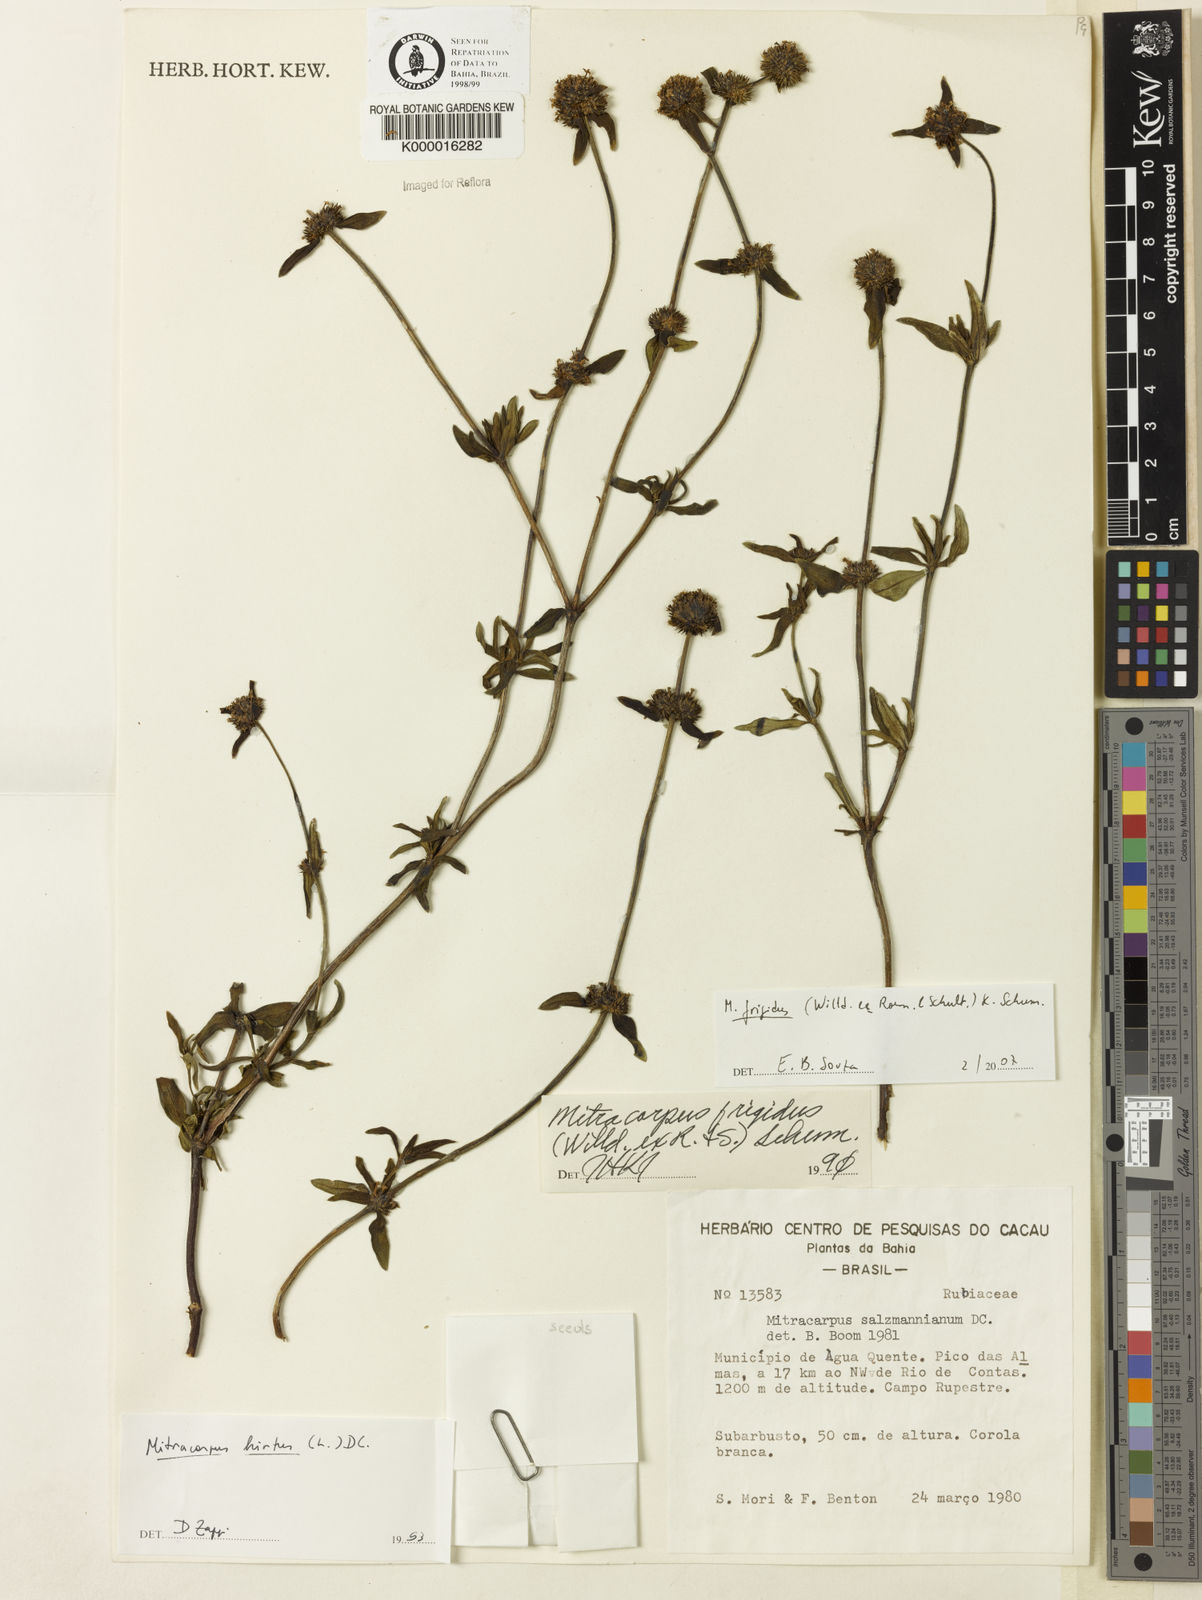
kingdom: Plantae
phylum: Tracheophyta
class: Magnoliopsida
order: Gentianales
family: Rubiaceae
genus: Mitracarpus
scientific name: Mitracarpus frigidus
